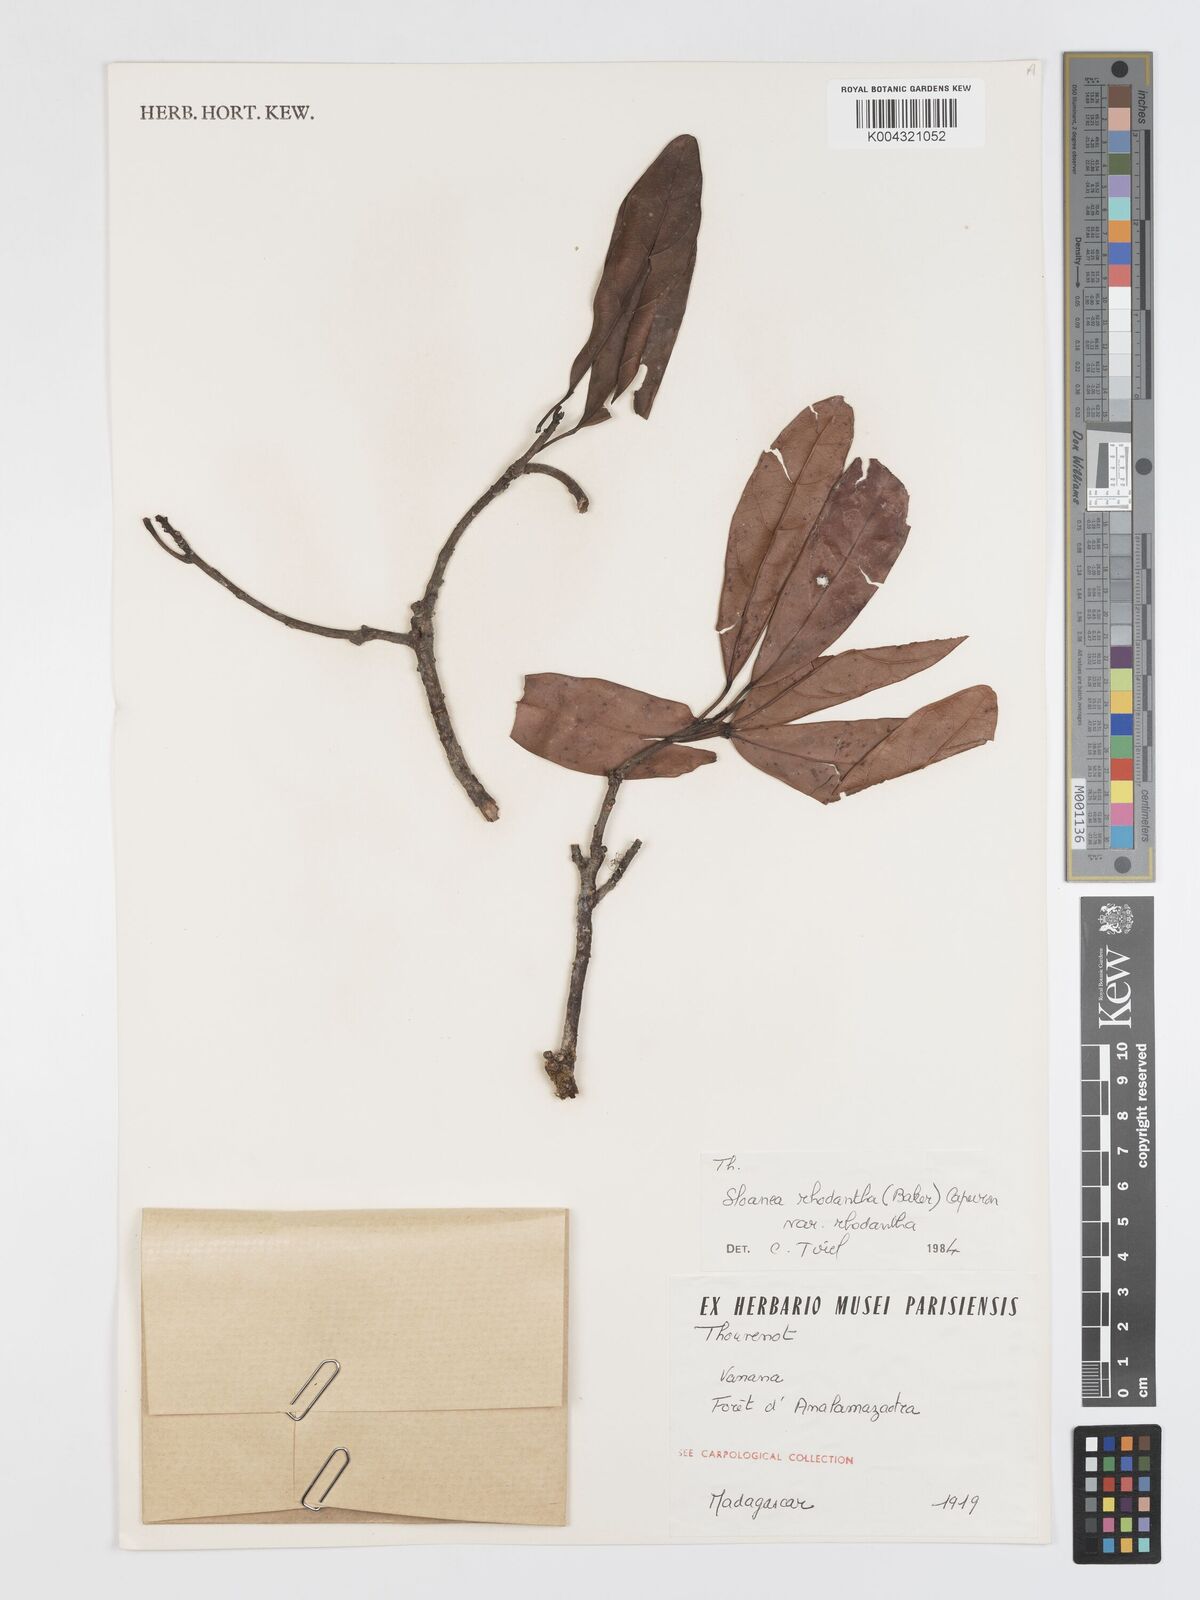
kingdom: Plantae
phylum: Tracheophyta
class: Magnoliopsida
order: Oxalidales
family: Elaeocarpaceae
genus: Sloanea
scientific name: Sloanea rhodantha
